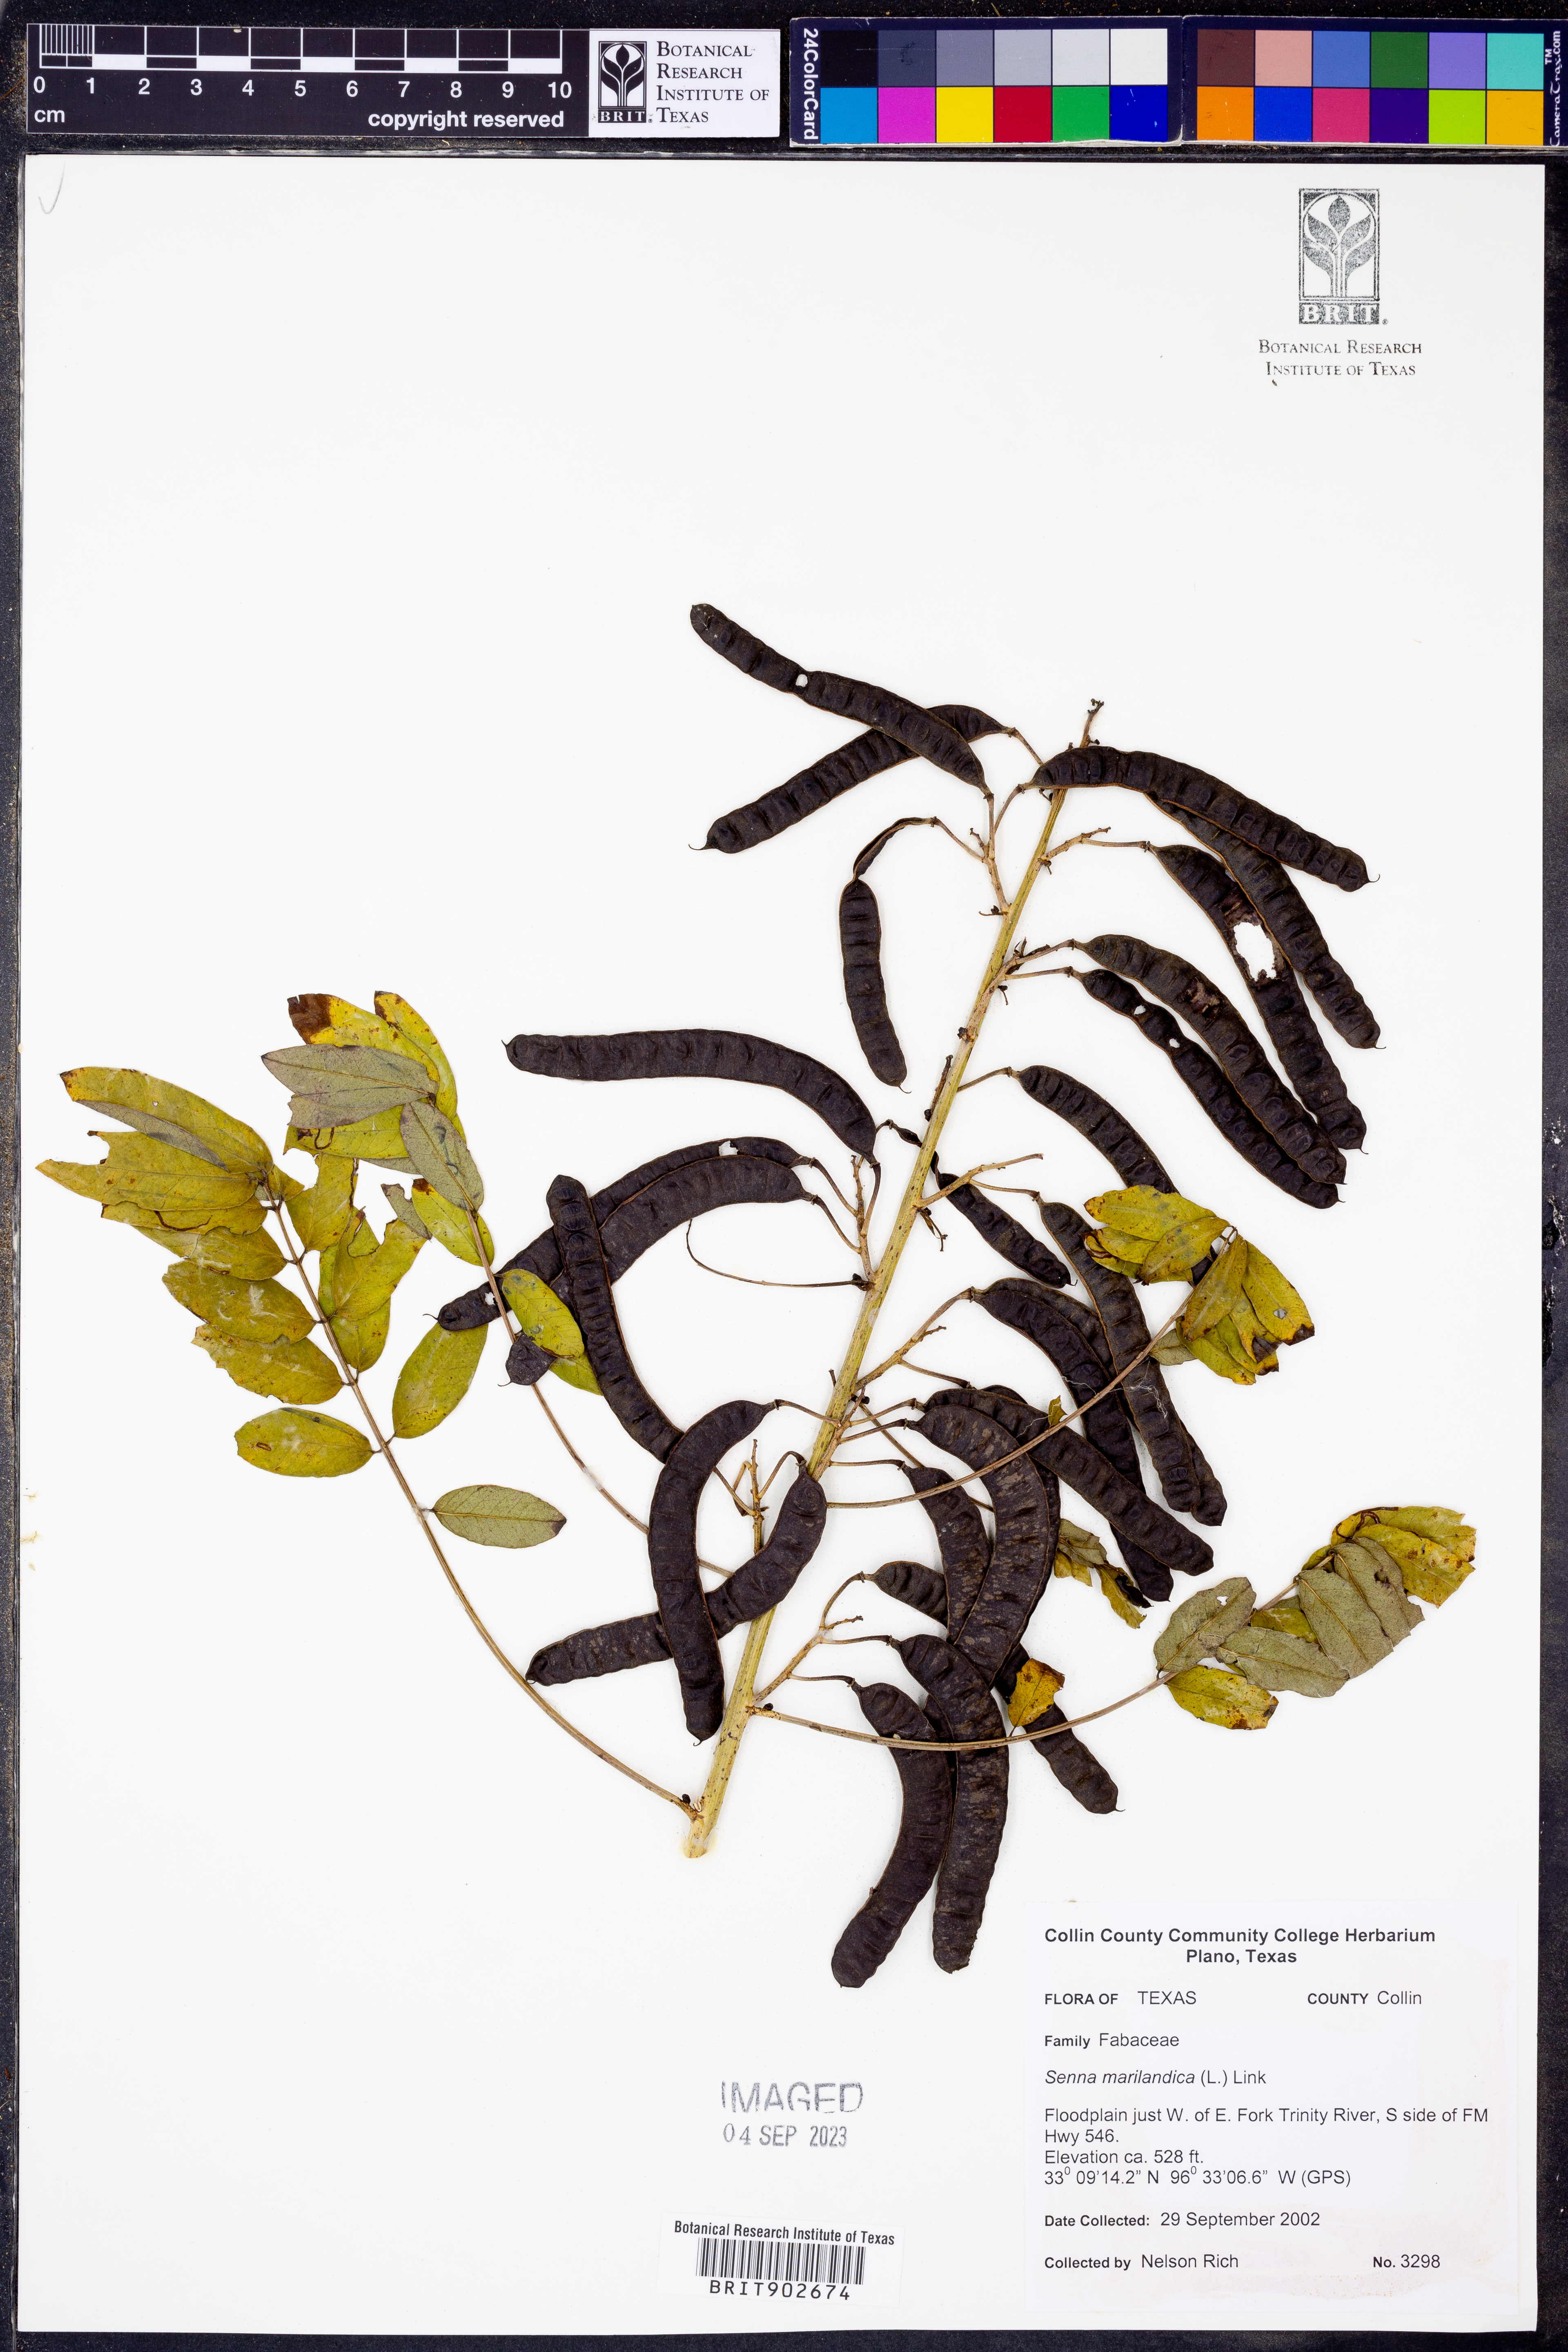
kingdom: Plantae
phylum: Tracheophyta
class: Magnoliopsida
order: Fabales
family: Fabaceae
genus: Senna
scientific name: Senna marilandica
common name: American senna
